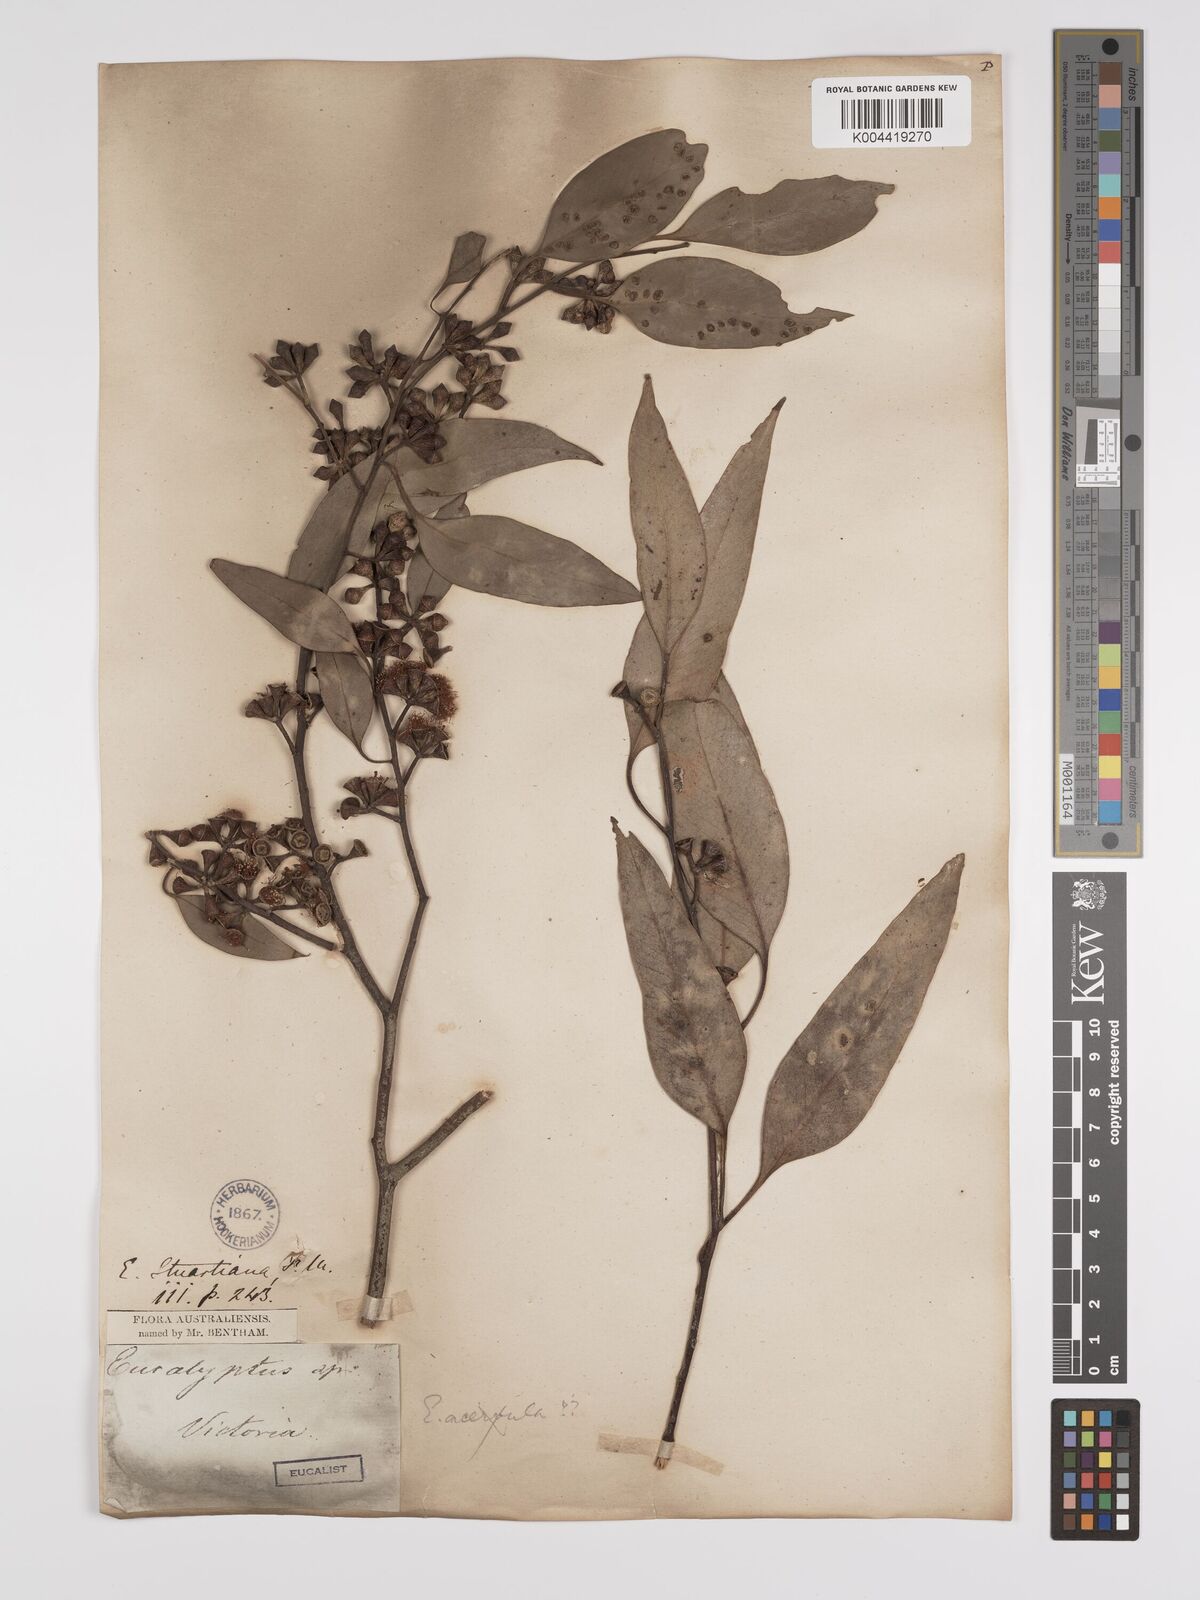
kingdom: Plantae
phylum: Tracheophyta
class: Magnoliopsida
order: Myrtales
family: Myrtaceae
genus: Eucalyptus
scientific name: Eucalyptus ovata
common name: Black-gum
